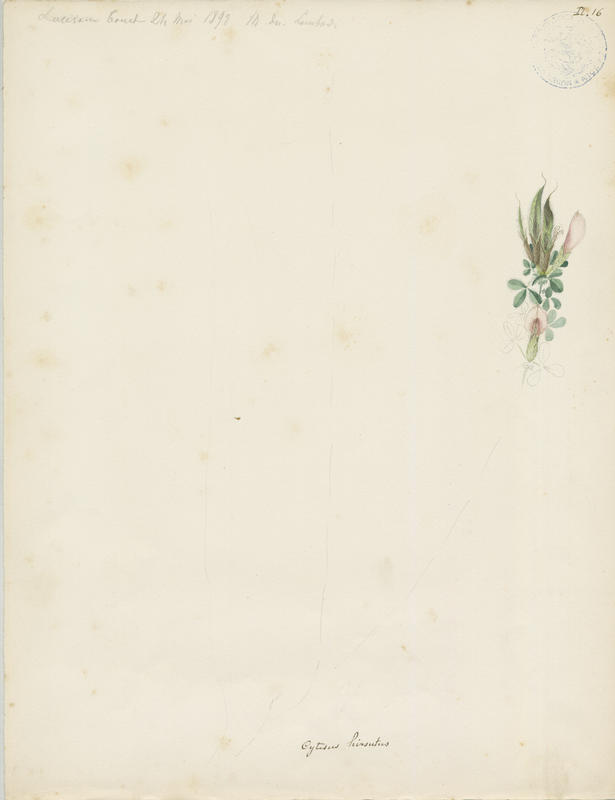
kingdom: Plantae
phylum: Tracheophyta
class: Magnoliopsida
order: Fabales
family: Fabaceae
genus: Chamaecytisus
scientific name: Chamaecytisus hirsutus
